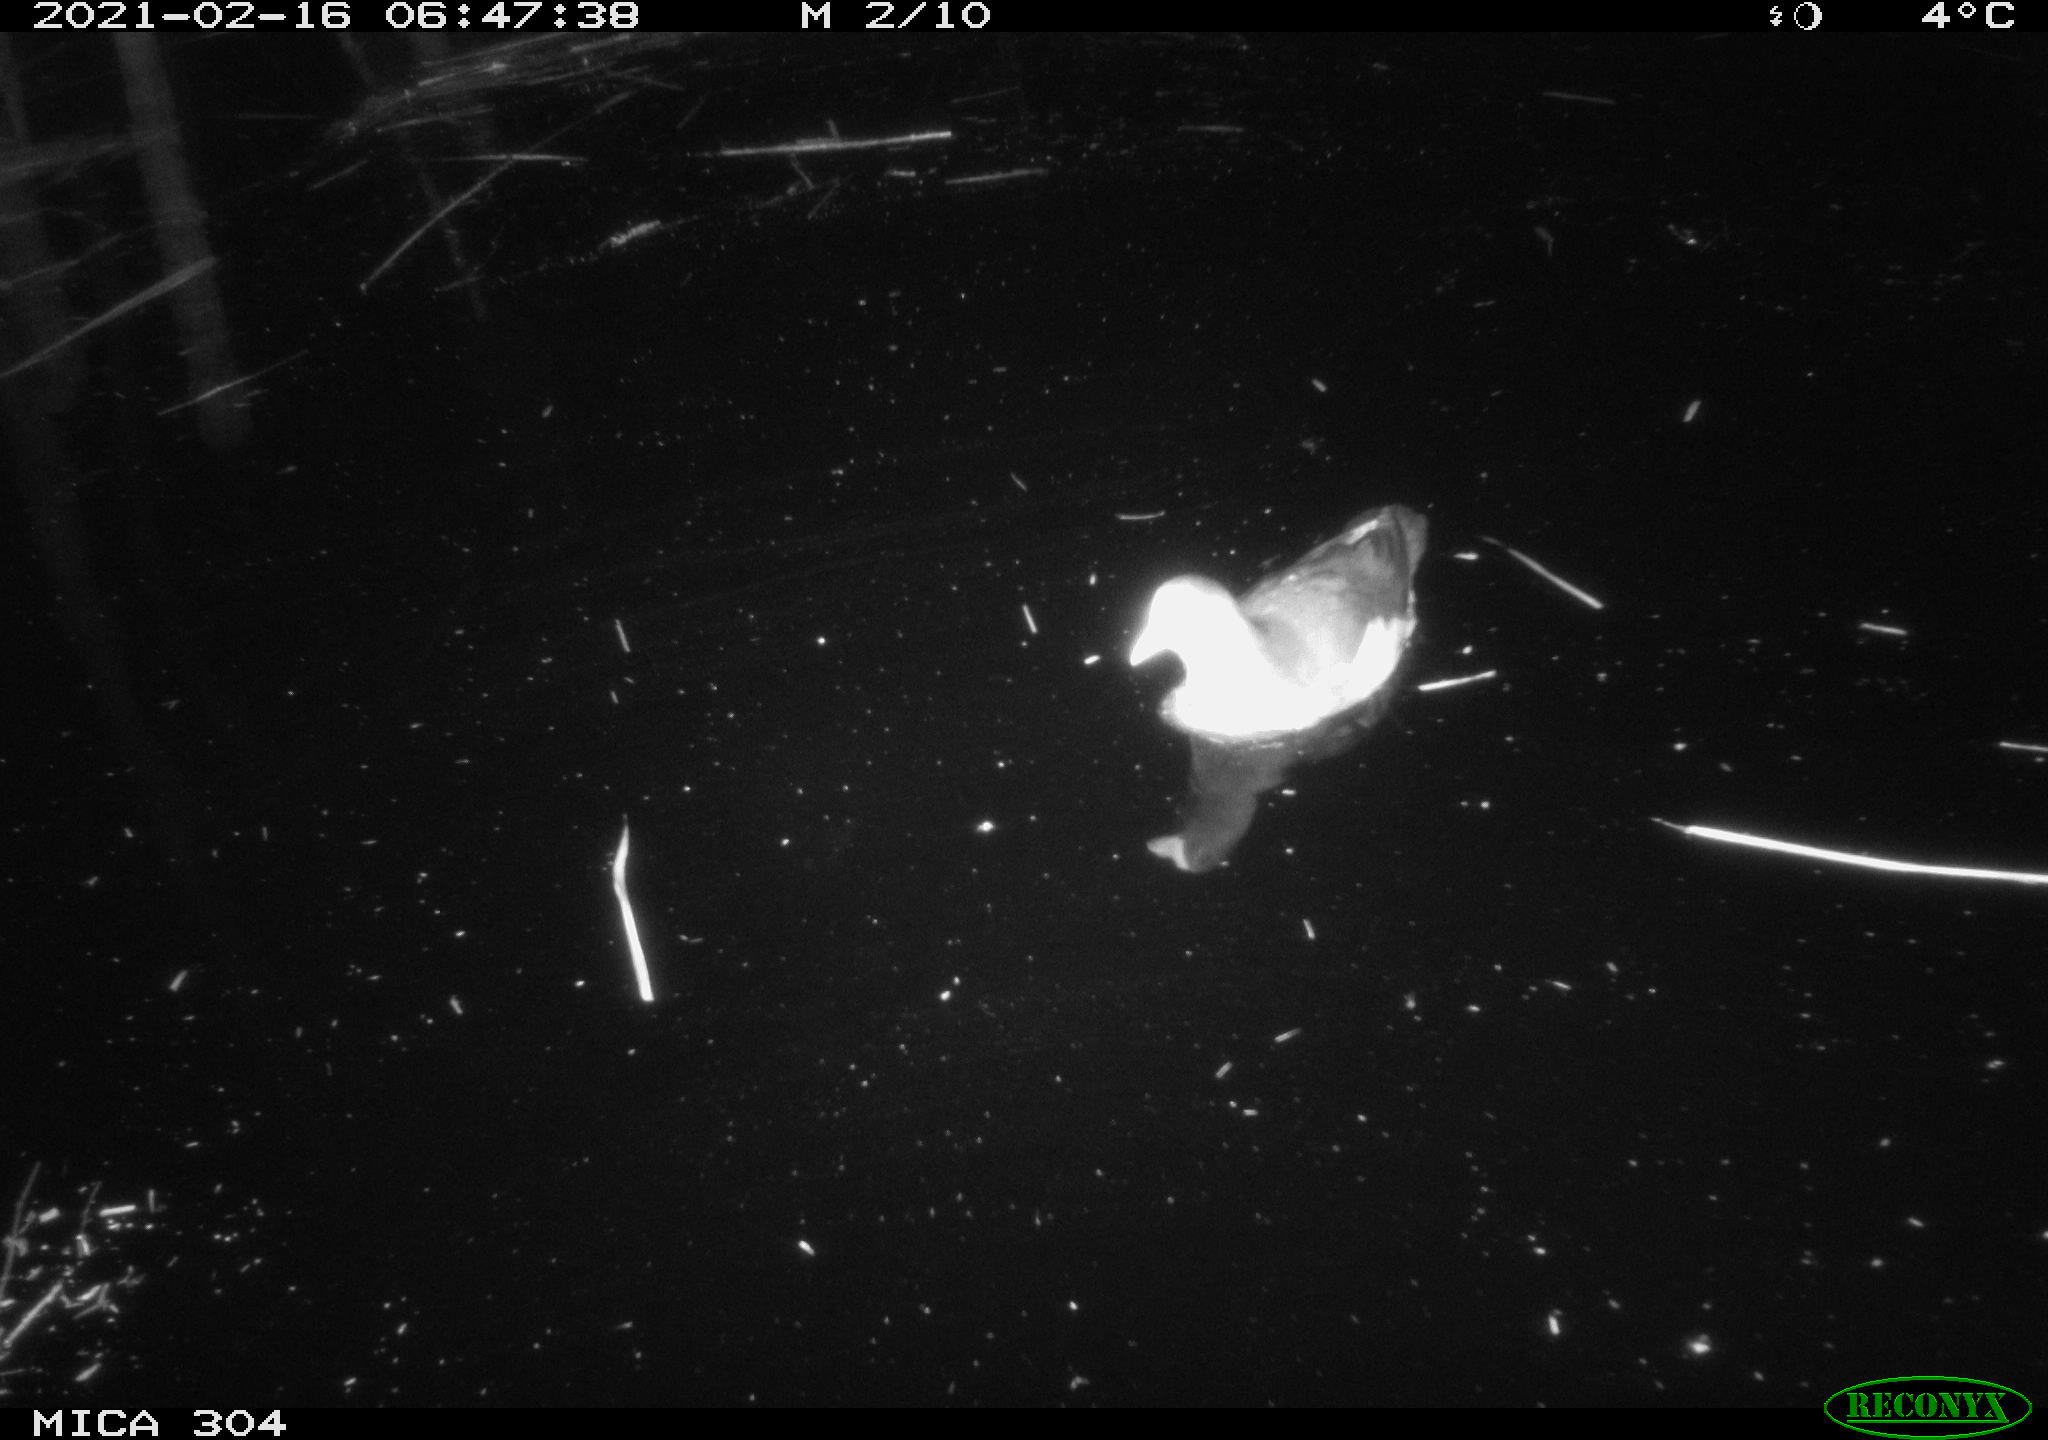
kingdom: Animalia
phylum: Chordata
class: Aves
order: Gruiformes
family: Rallidae
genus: Gallinula
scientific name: Gallinula chloropus
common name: Common moorhen
